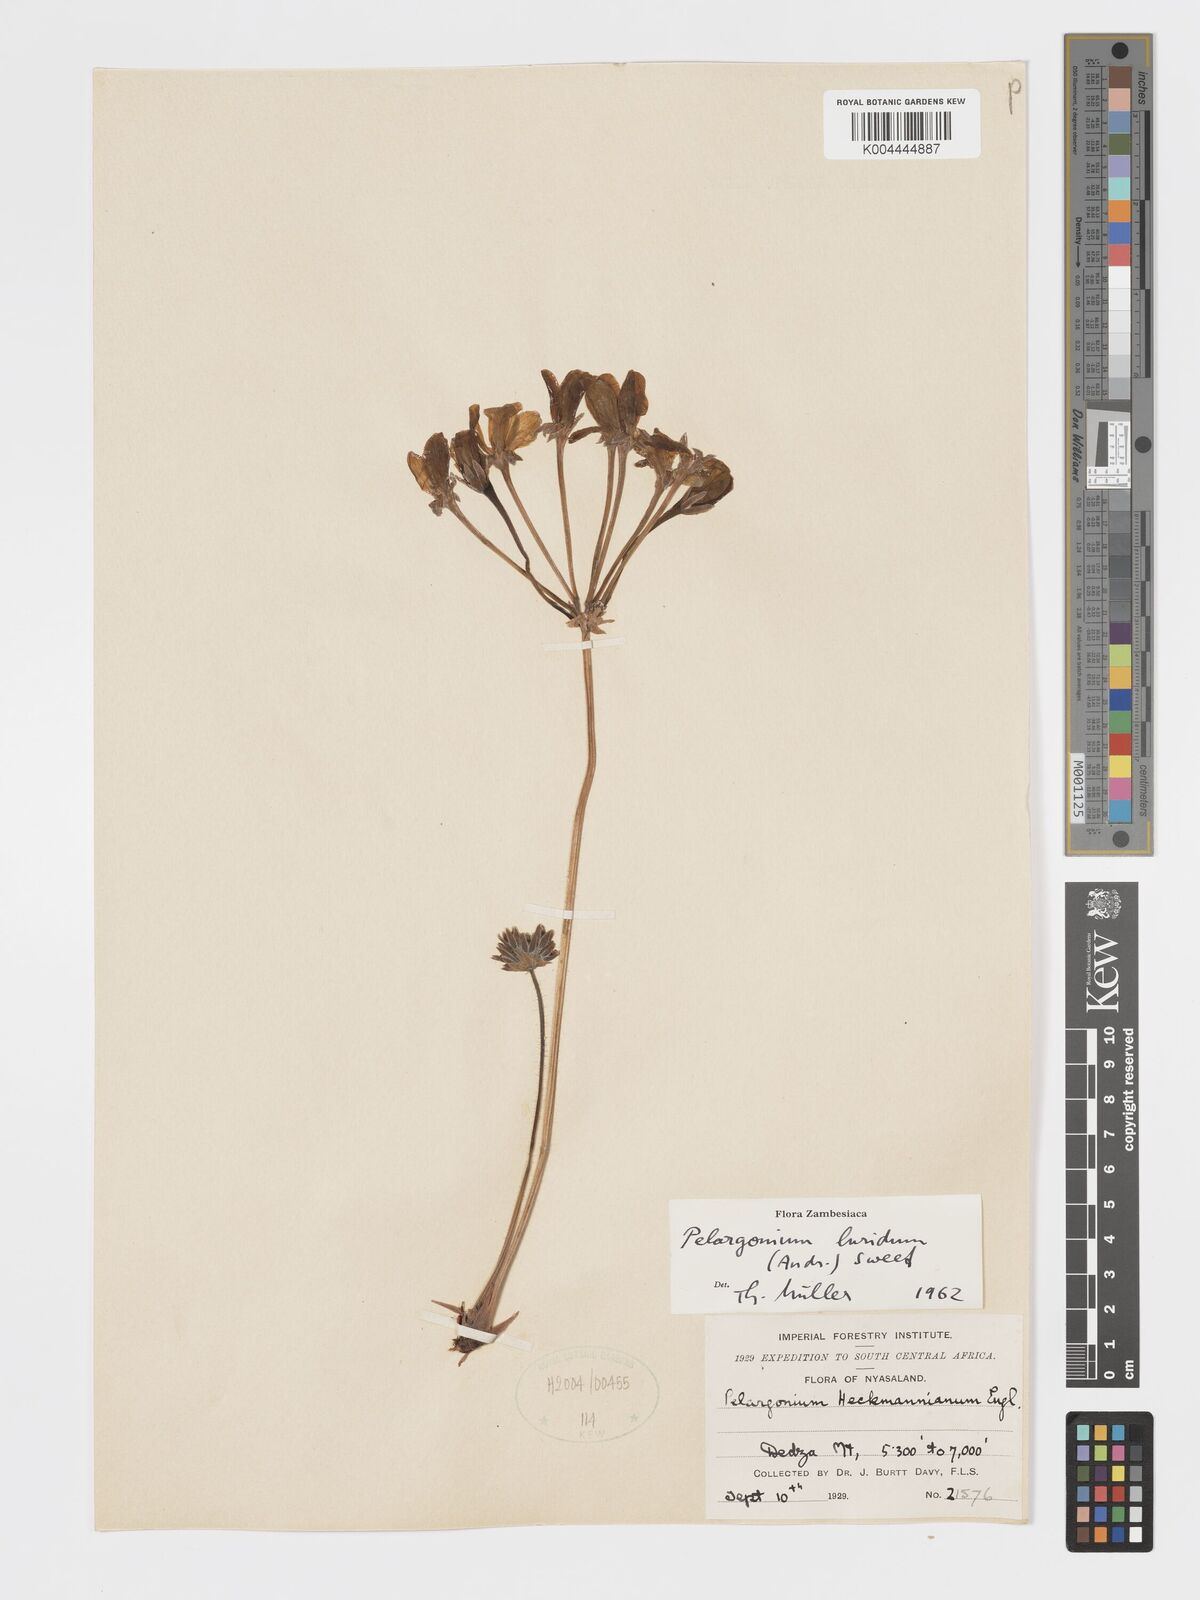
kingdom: Plantae
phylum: Tracheophyta
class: Magnoliopsida
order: Geraniales
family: Geraniaceae
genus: Pelargonium
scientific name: Pelargonium luridum
